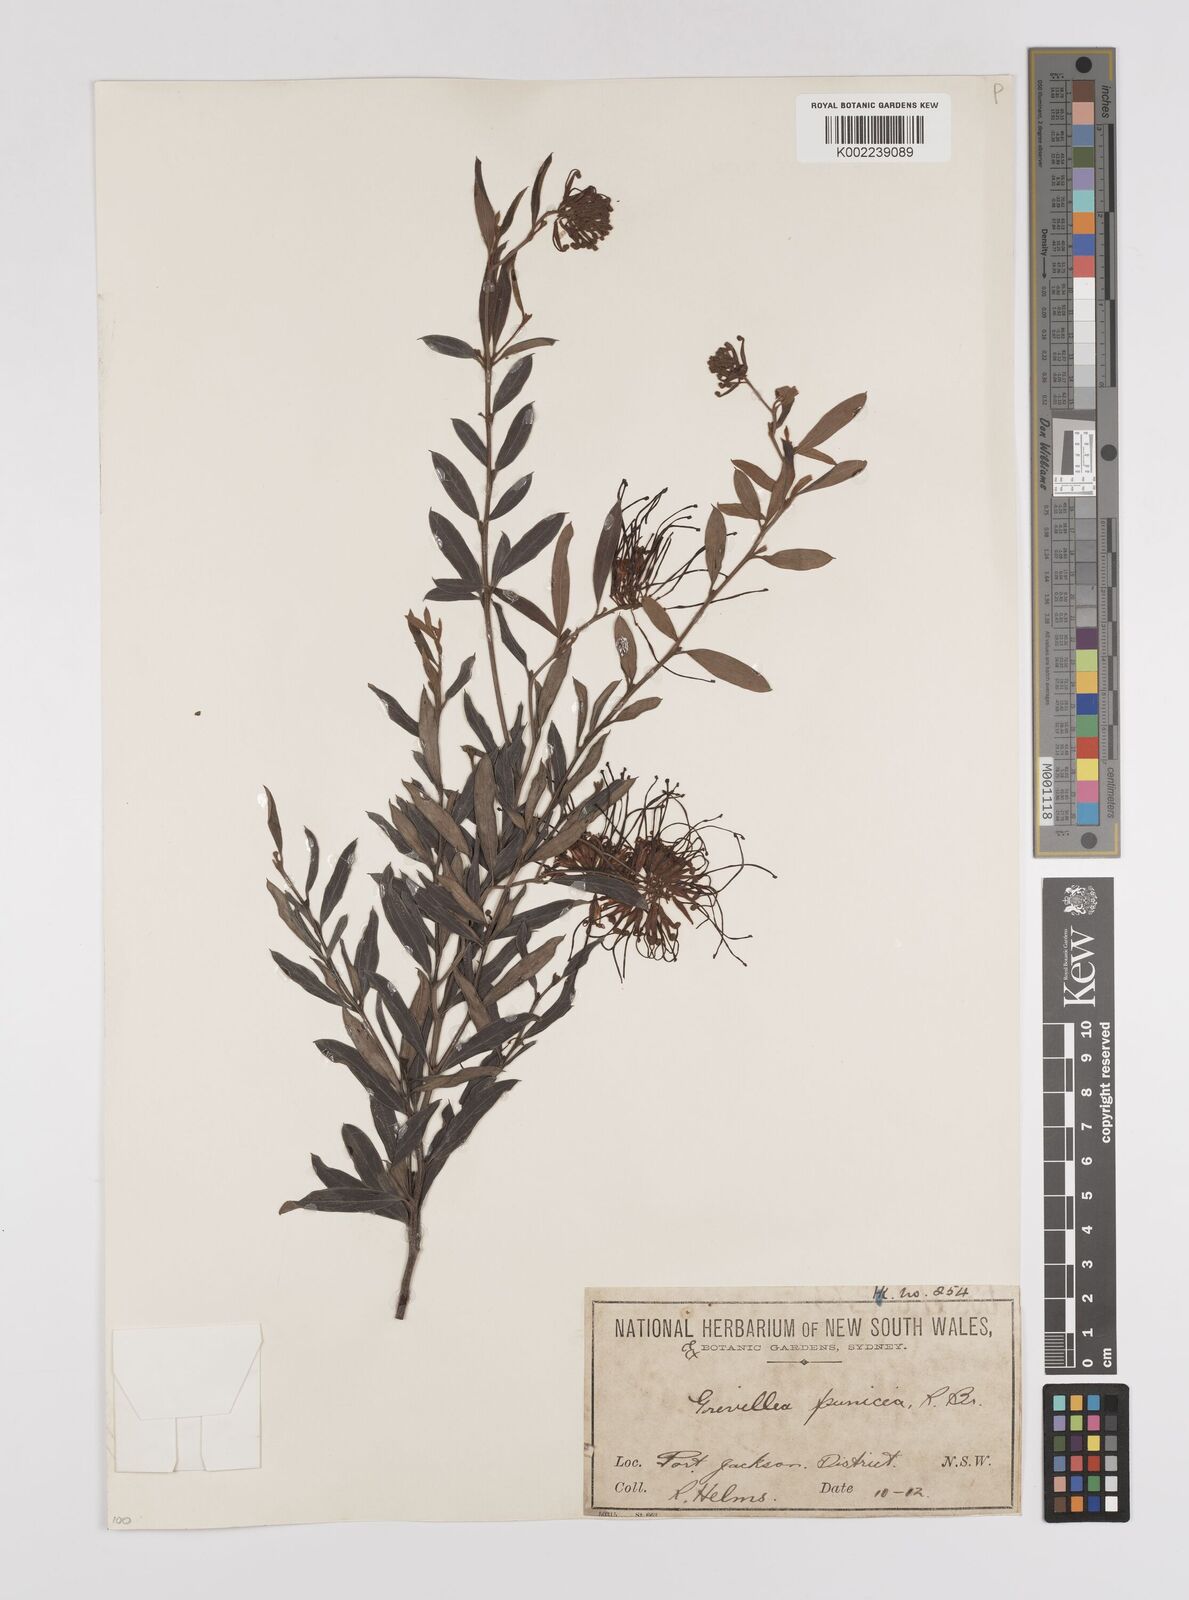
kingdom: Plantae
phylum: Tracheophyta
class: Magnoliopsida
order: Proteales
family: Proteaceae
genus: Grevillea
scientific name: Grevillea speciosa
